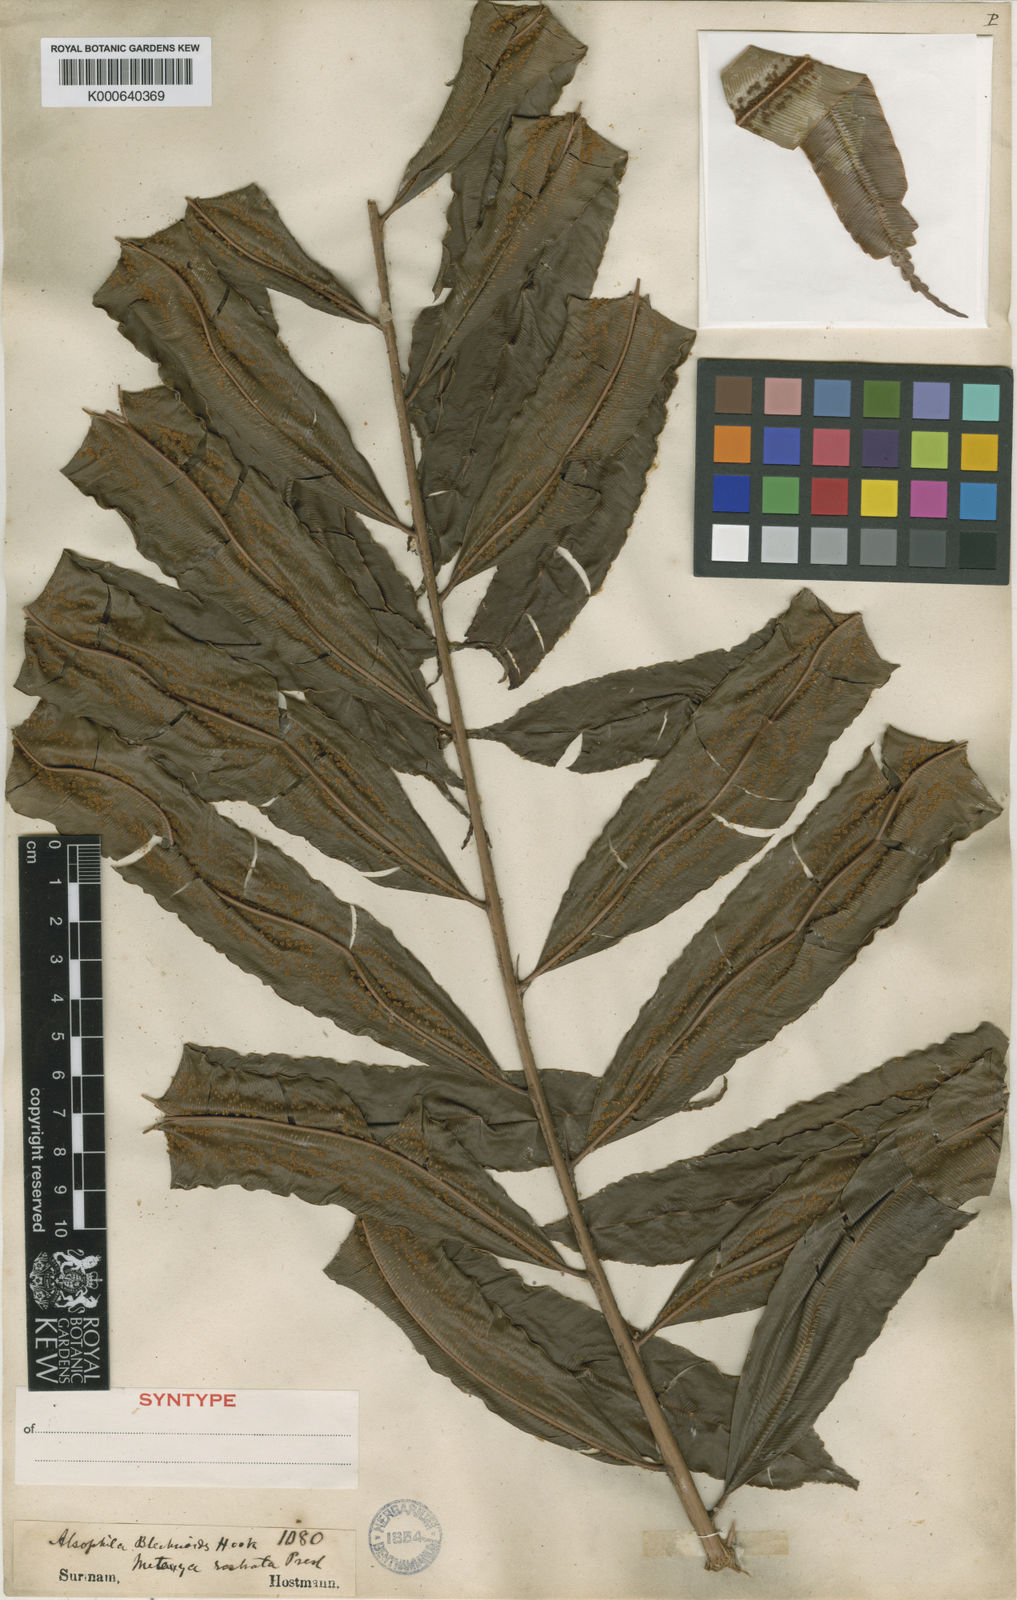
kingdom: Plantae
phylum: Tracheophyta
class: Polypodiopsida
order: Cyatheales
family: Metaxyaceae
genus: Metaxya
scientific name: Metaxya rostrata
